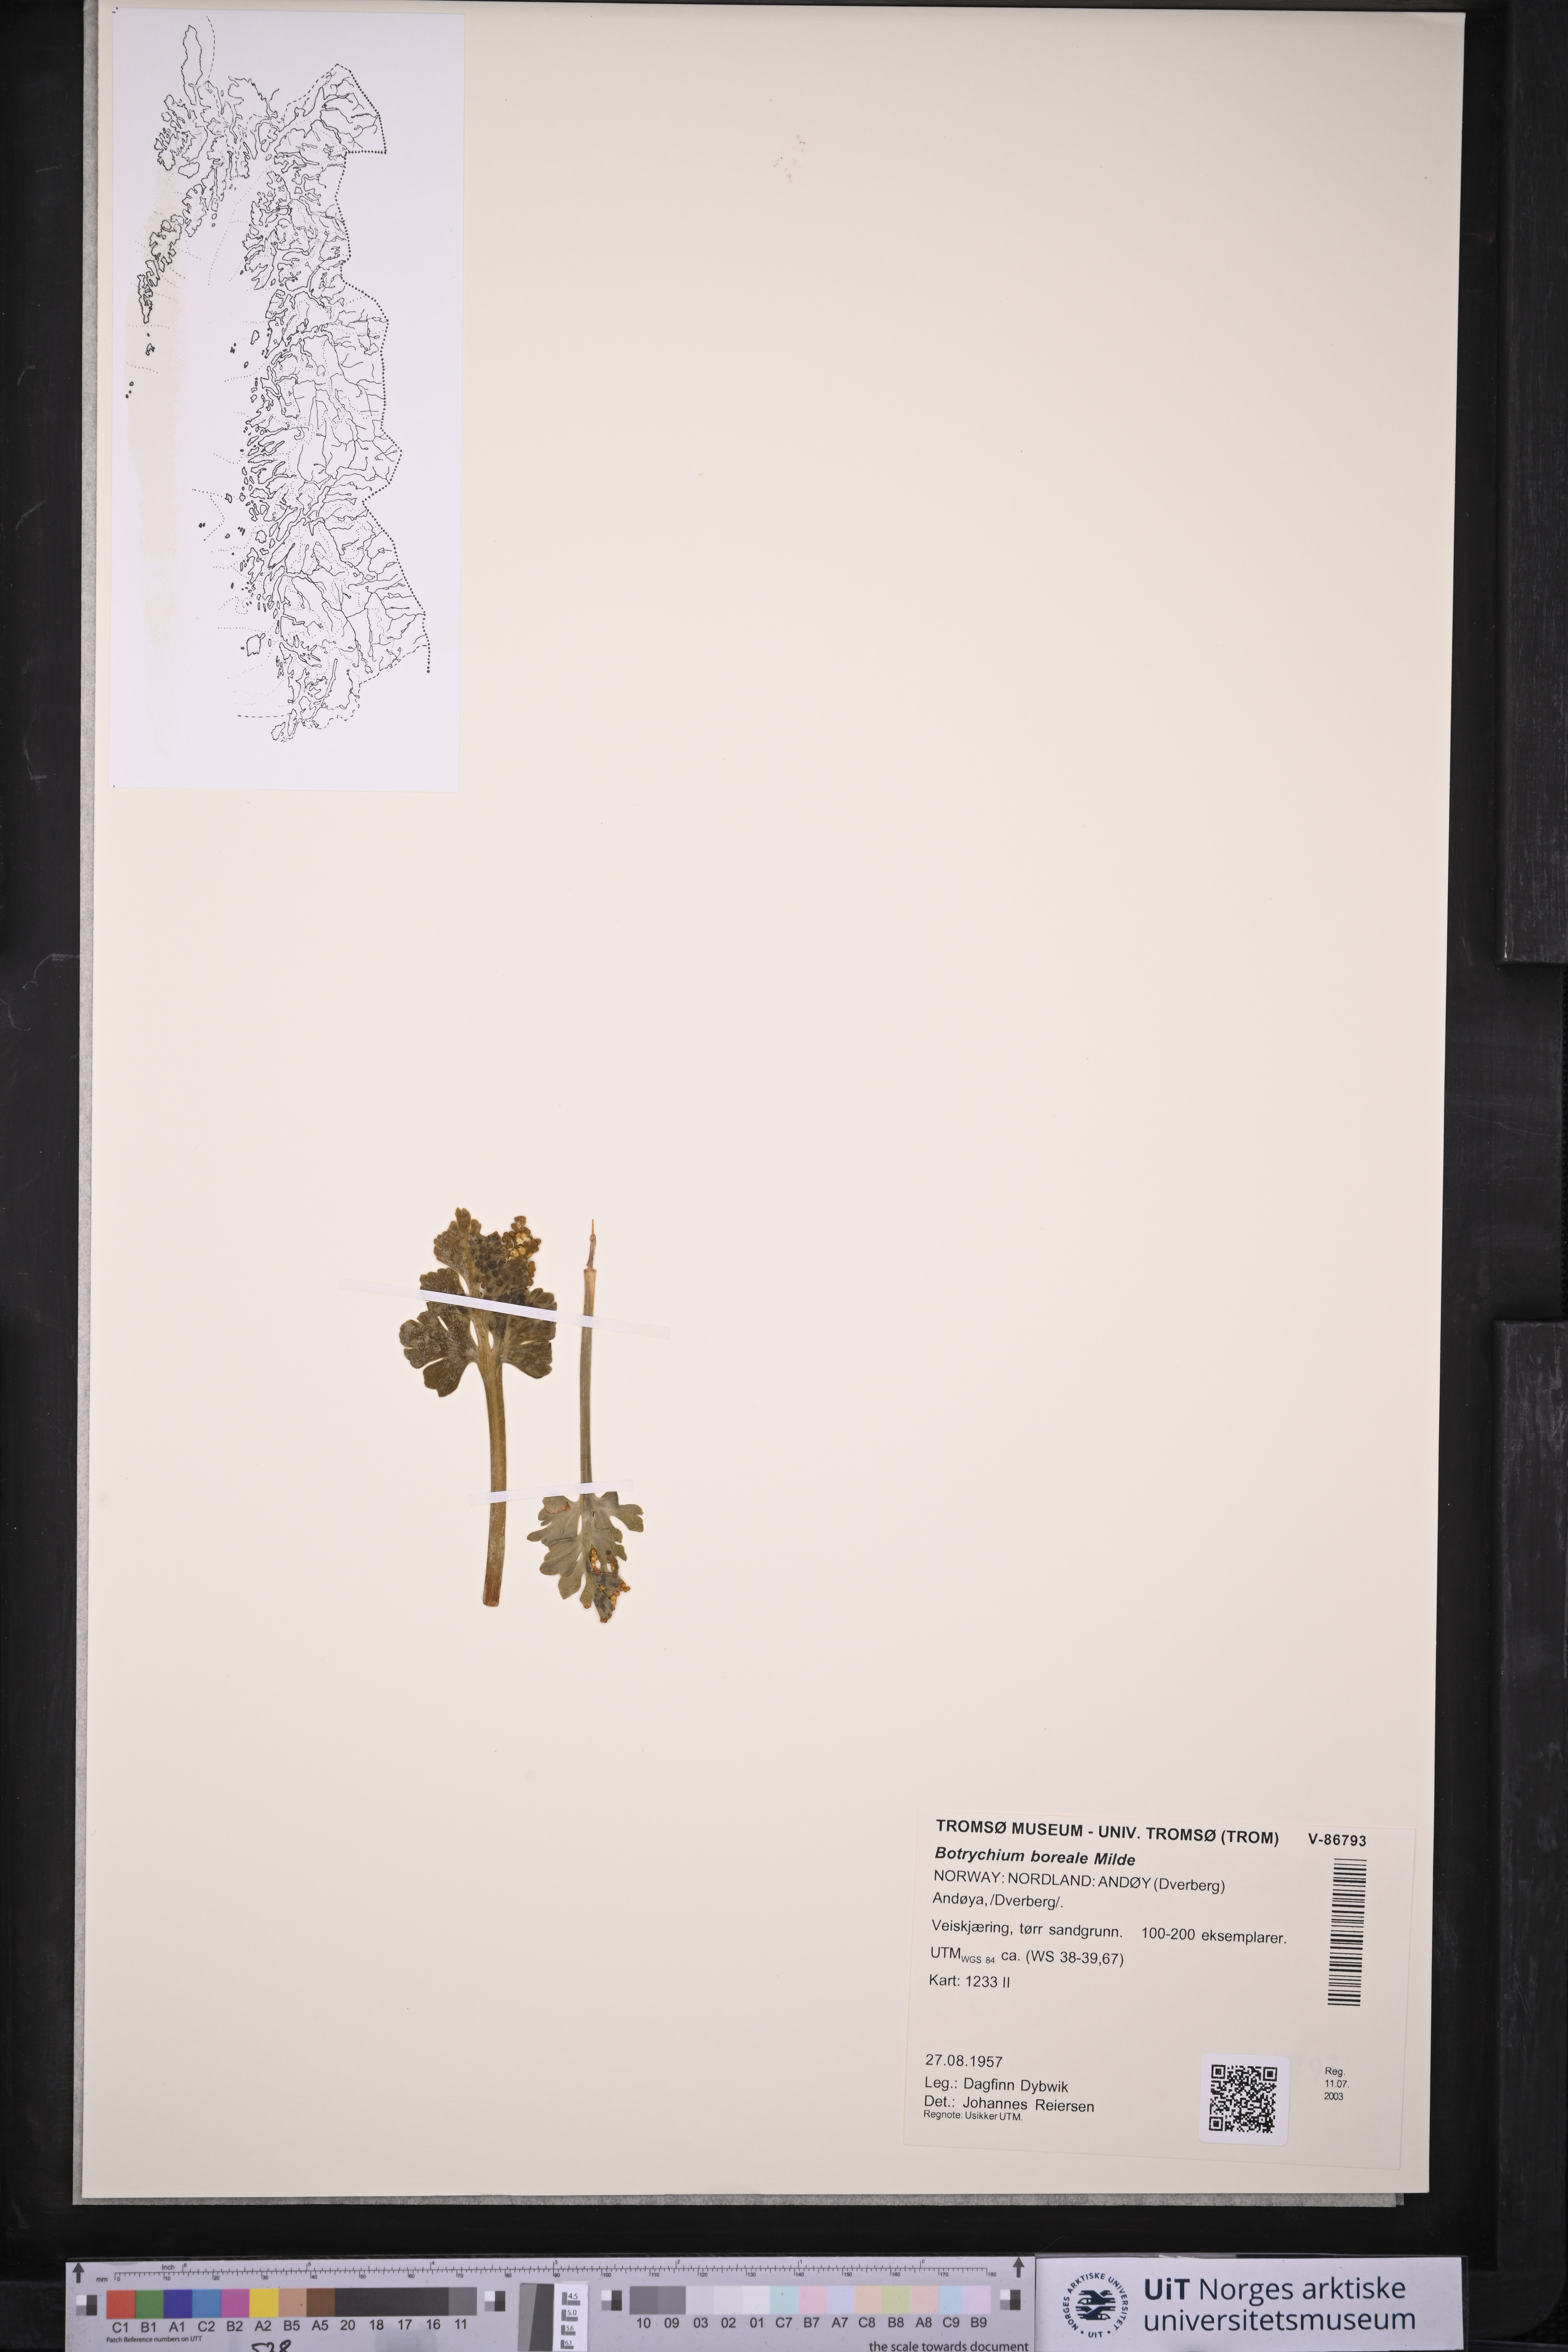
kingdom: Plantae
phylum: Tracheophyta
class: Polypodiopsida
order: Ophioglossales
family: Ophioglossaceae
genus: Botrychium
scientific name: Botrychium boreale
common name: Boreal moonwort
